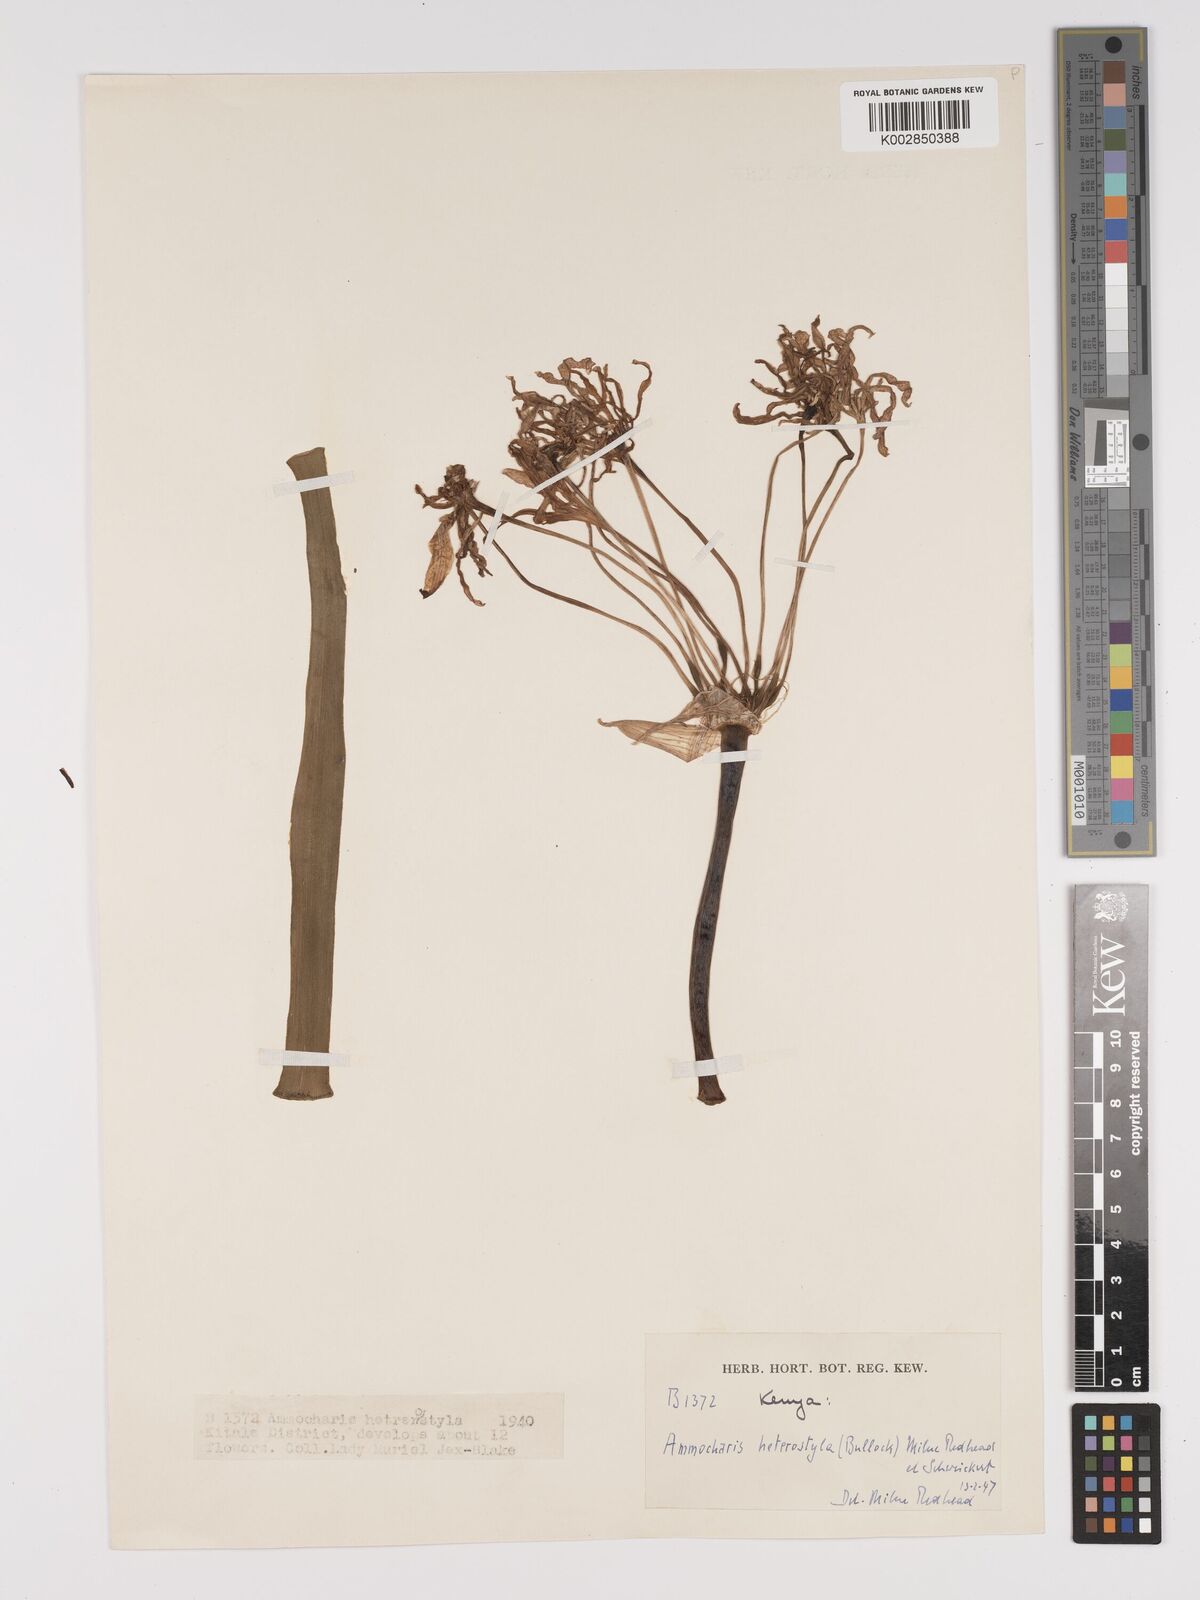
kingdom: Plantae
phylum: Tracheophyta
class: Liliopsida
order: Asparagales
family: Amaryllidaceae
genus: Ammocharis
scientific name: Ammocharis angolensis
